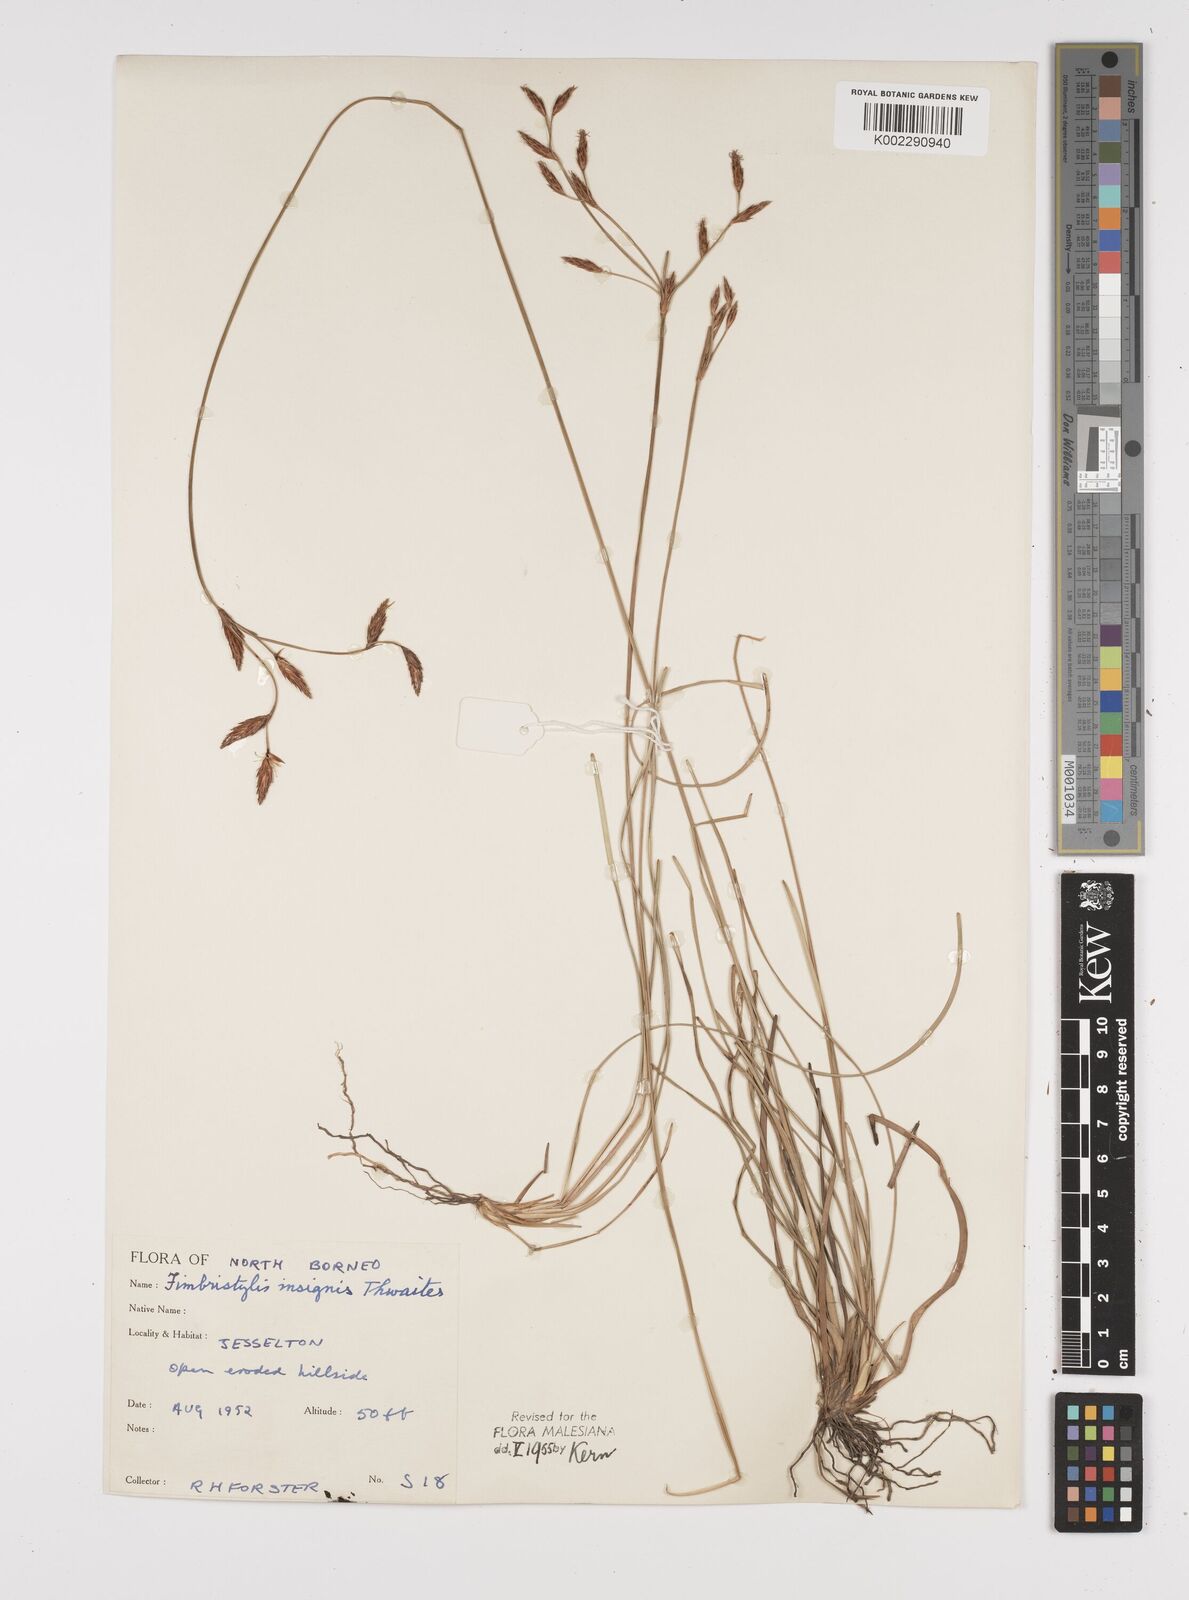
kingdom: Plantae
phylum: Tracheophyta
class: Liliopsida
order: Poales
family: Cyperaceae
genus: Fimbristylis
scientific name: Fimbristylis insignis
